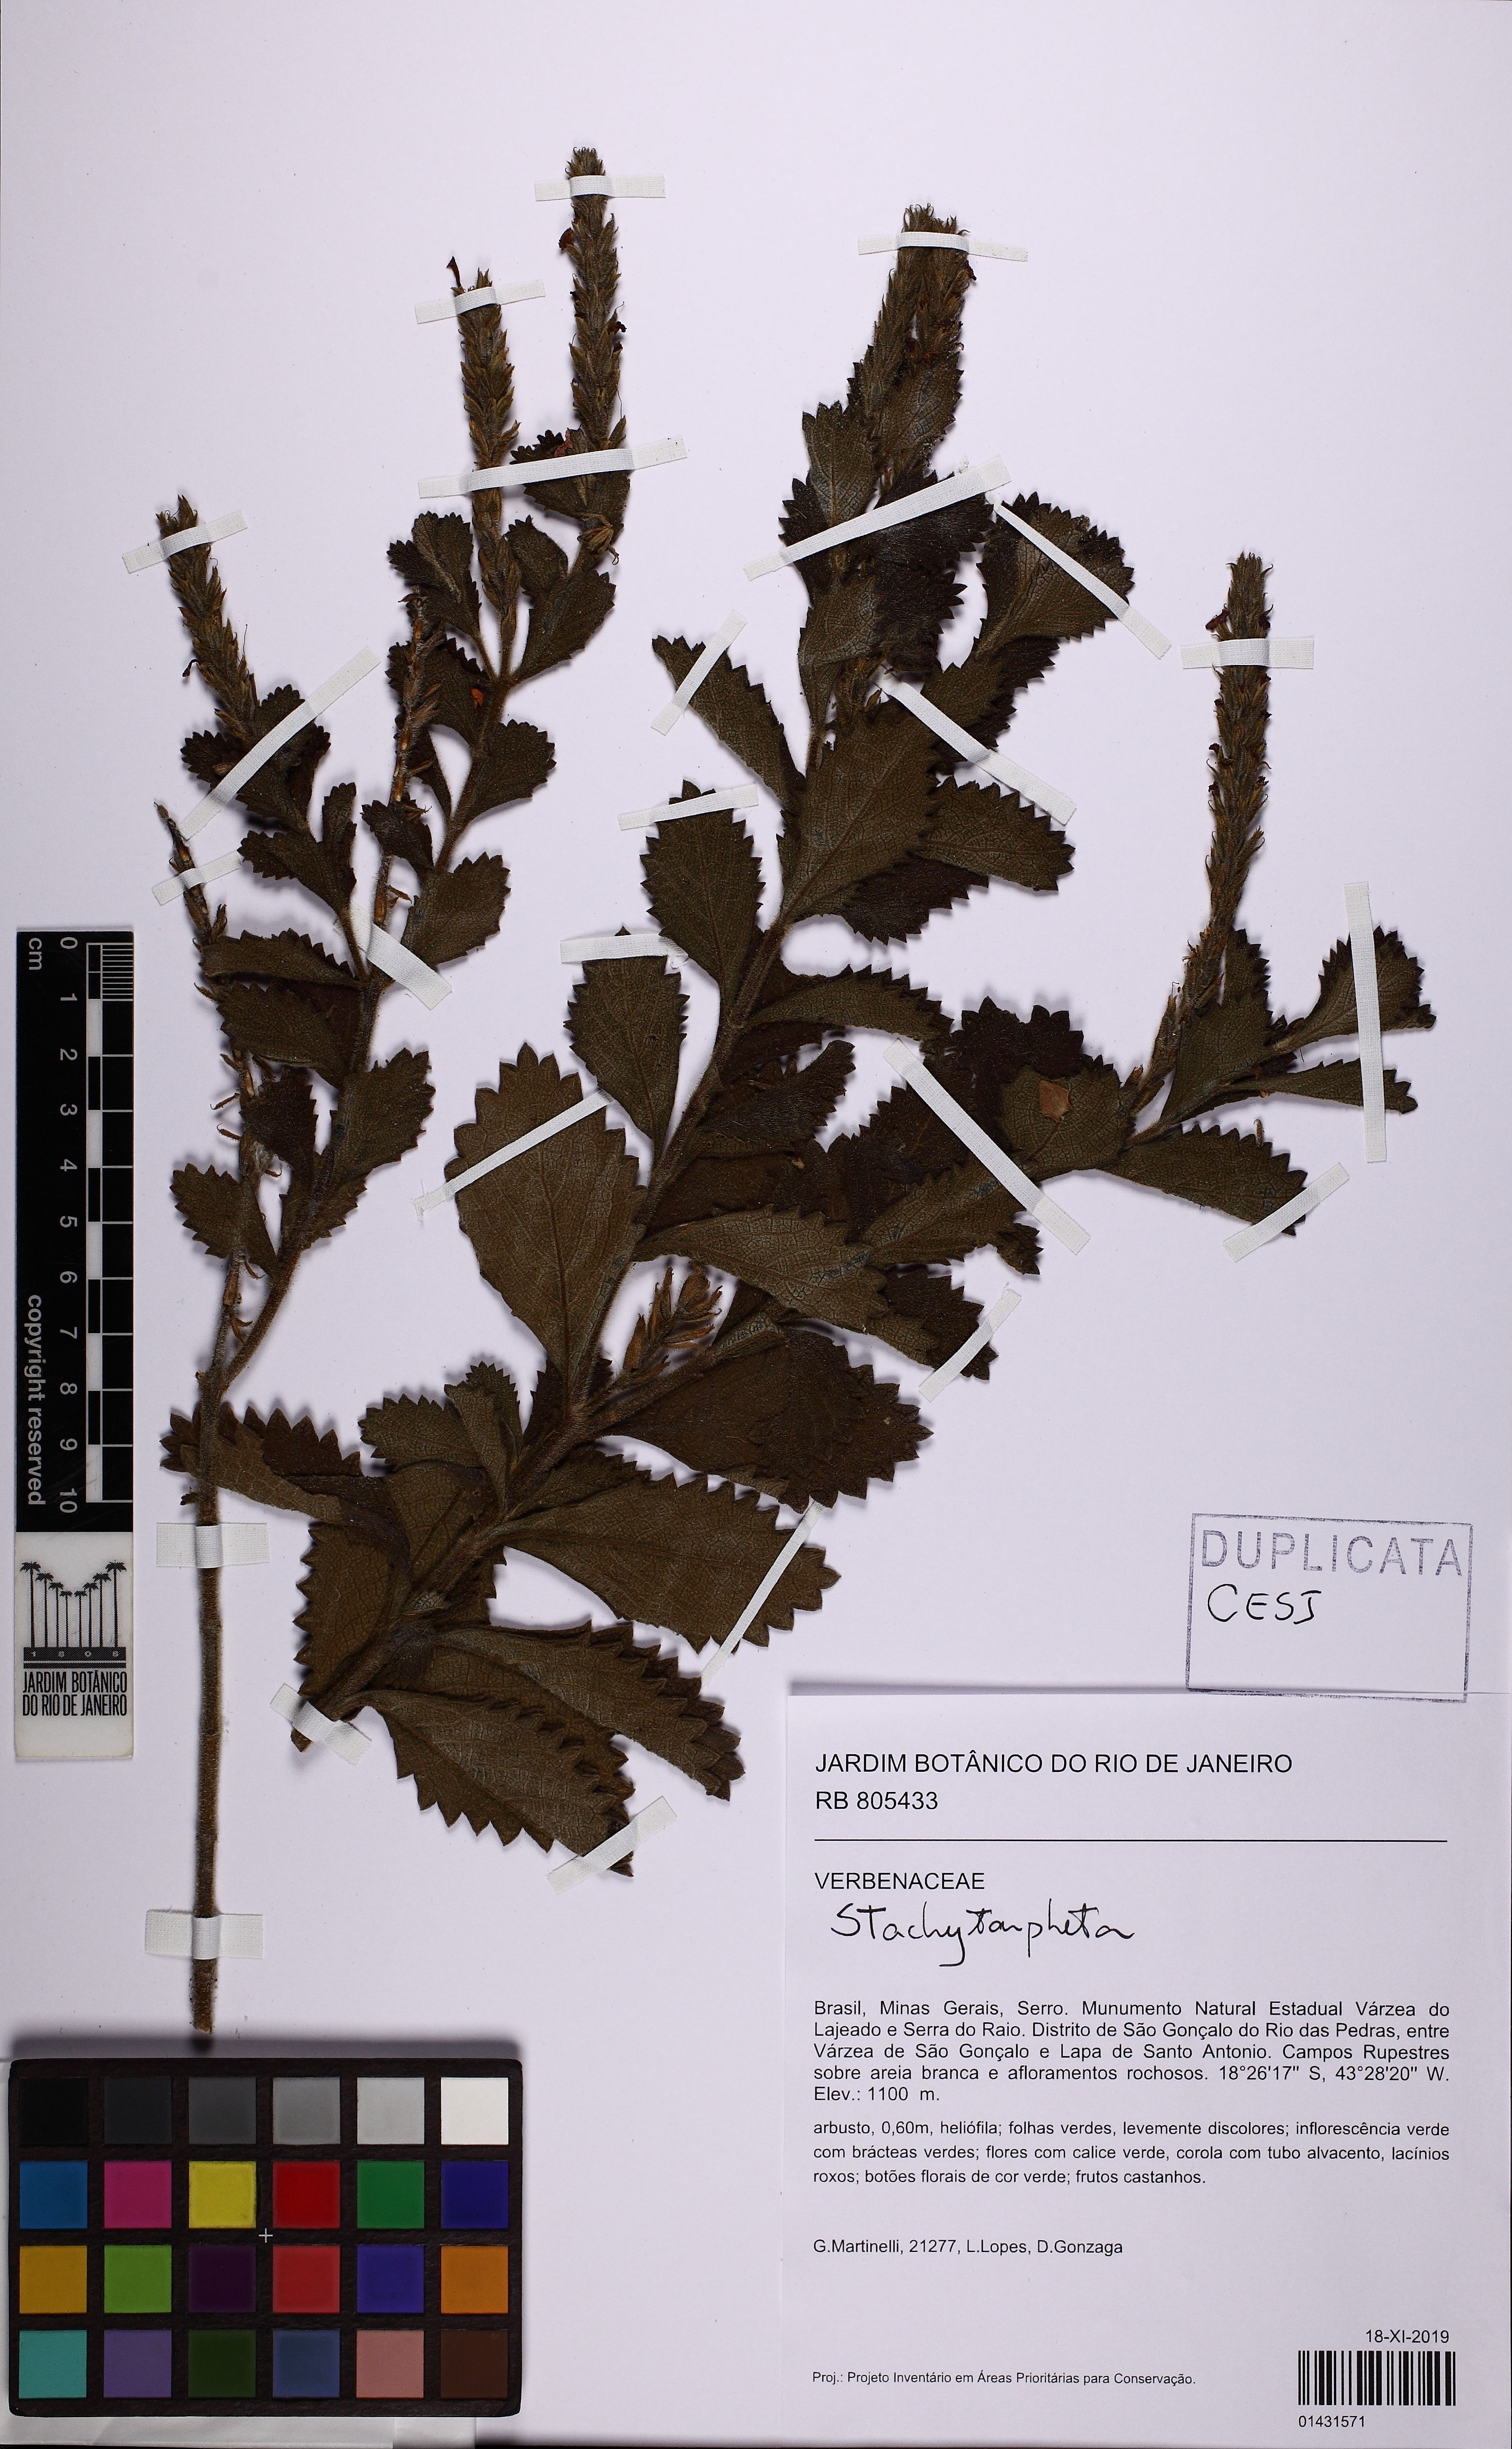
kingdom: Plantae
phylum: Tracheophyta
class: Magnoliopsida
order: Lamiales
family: Verbenaceae
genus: Stachytarpheta
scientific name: Stachytarpheta
